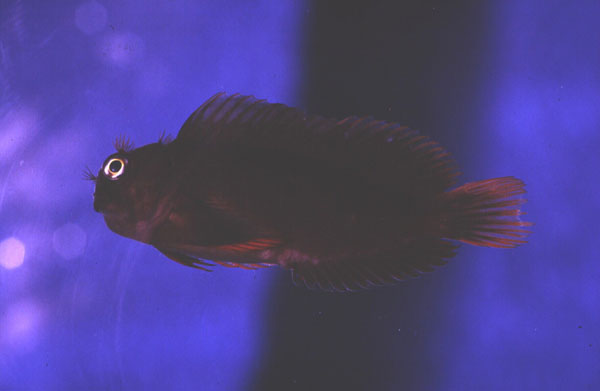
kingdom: Animalia
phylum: Chordata
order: Perciformes
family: Blenniidae
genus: Cirripectes
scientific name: Cirripectes perustus
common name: Flaming blenny
